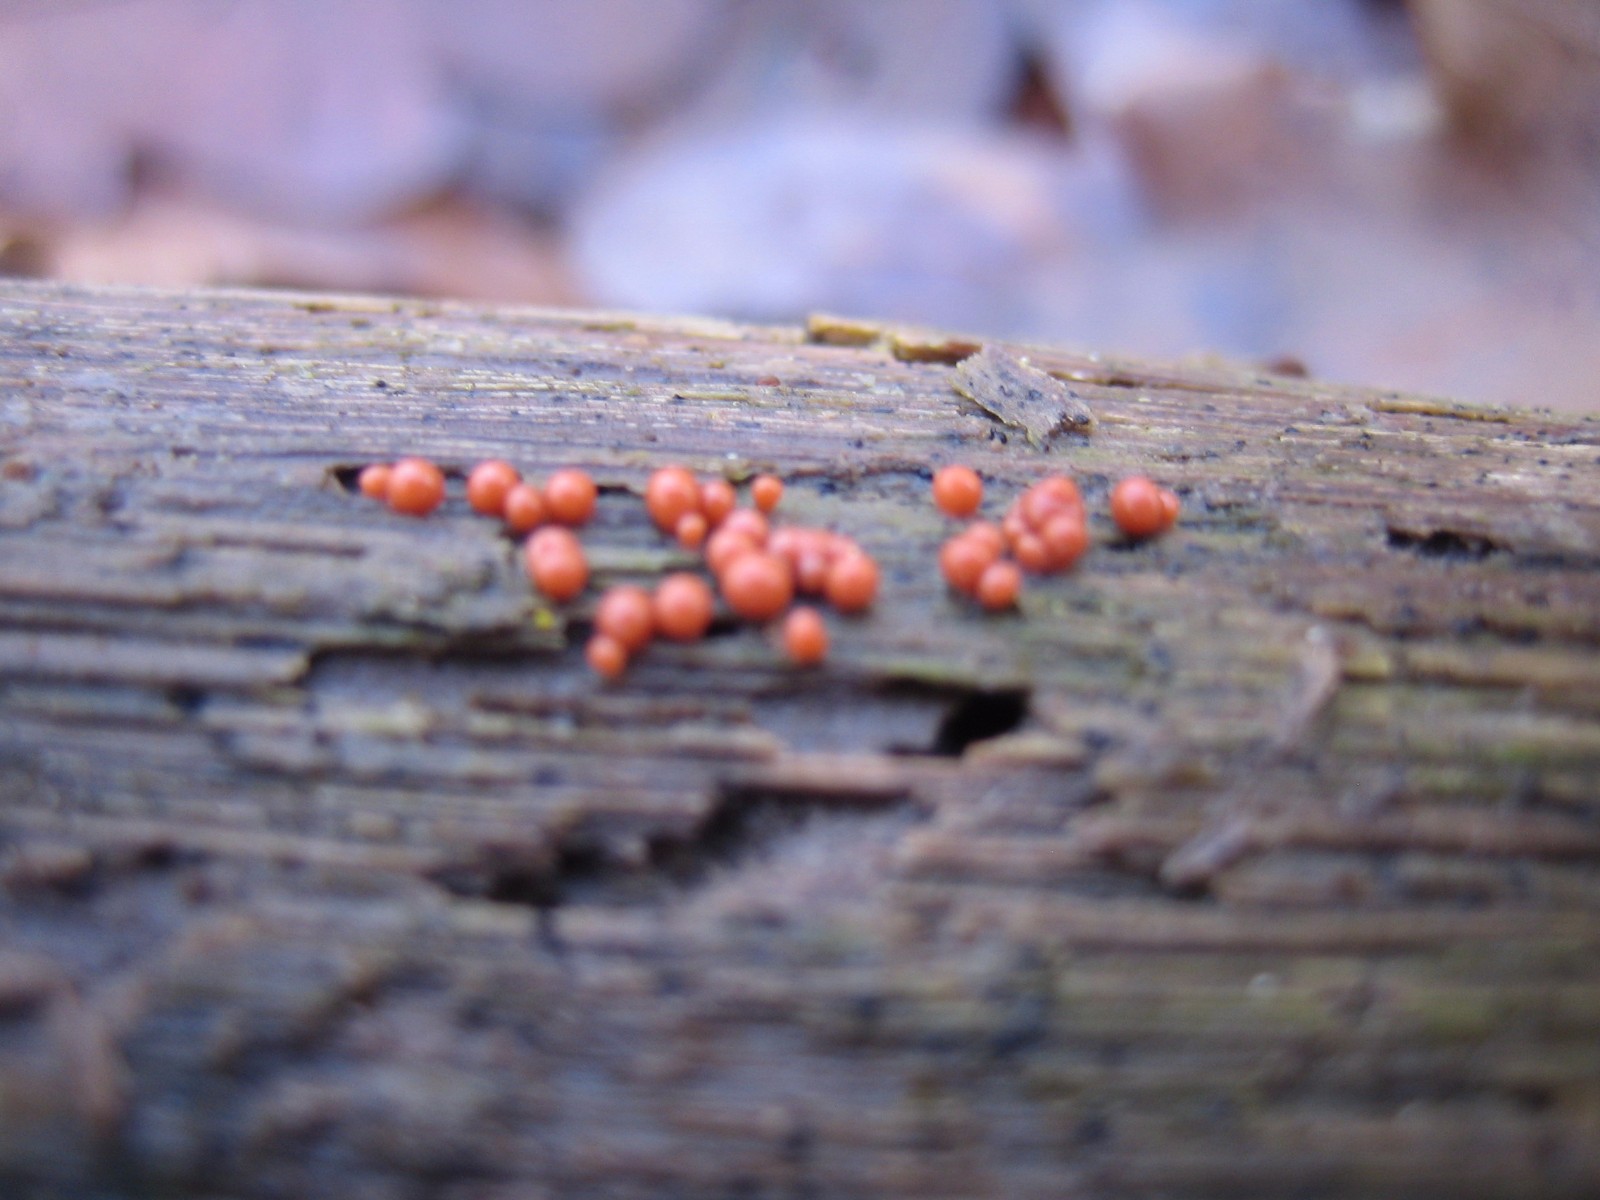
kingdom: Protozoa
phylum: Mycetozoa
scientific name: Mycetozoa
